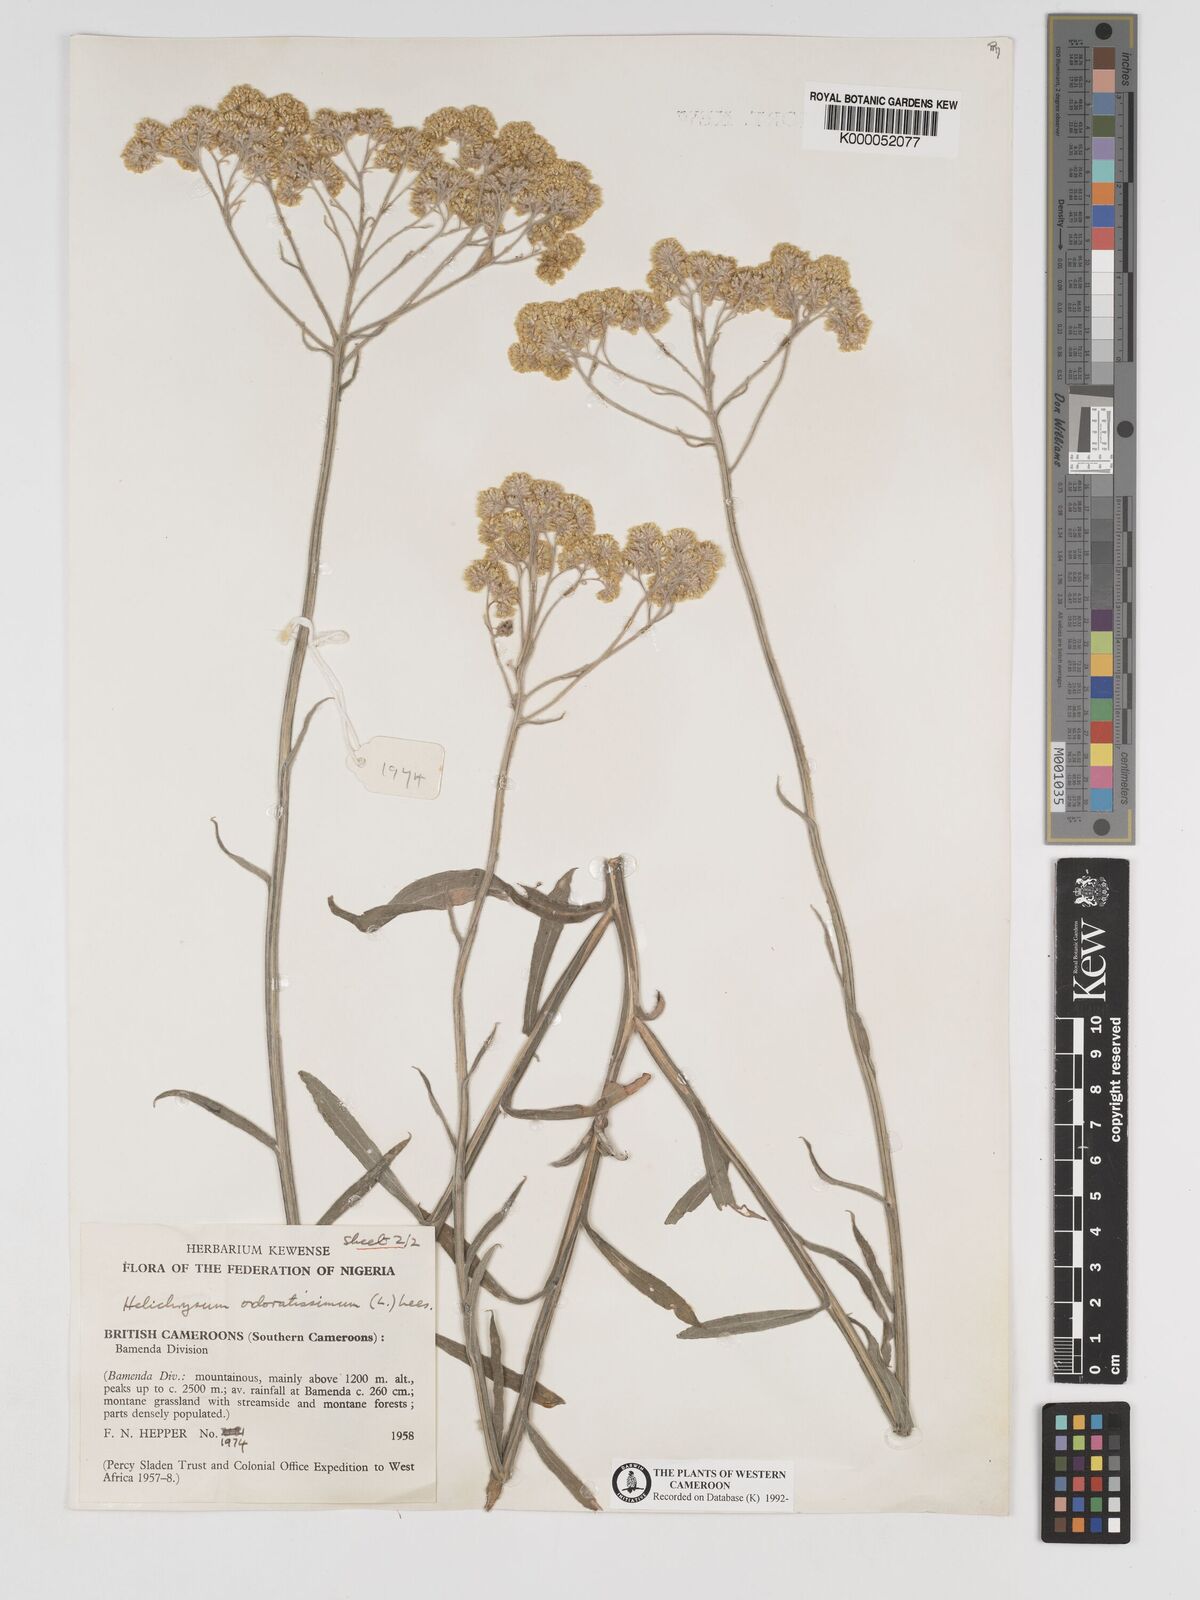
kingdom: Plantae
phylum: Tracheophyta
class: Magnoliopsida
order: Asterales
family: Asteraceae
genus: Helichrysum
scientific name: Helichrysum stenopterum
